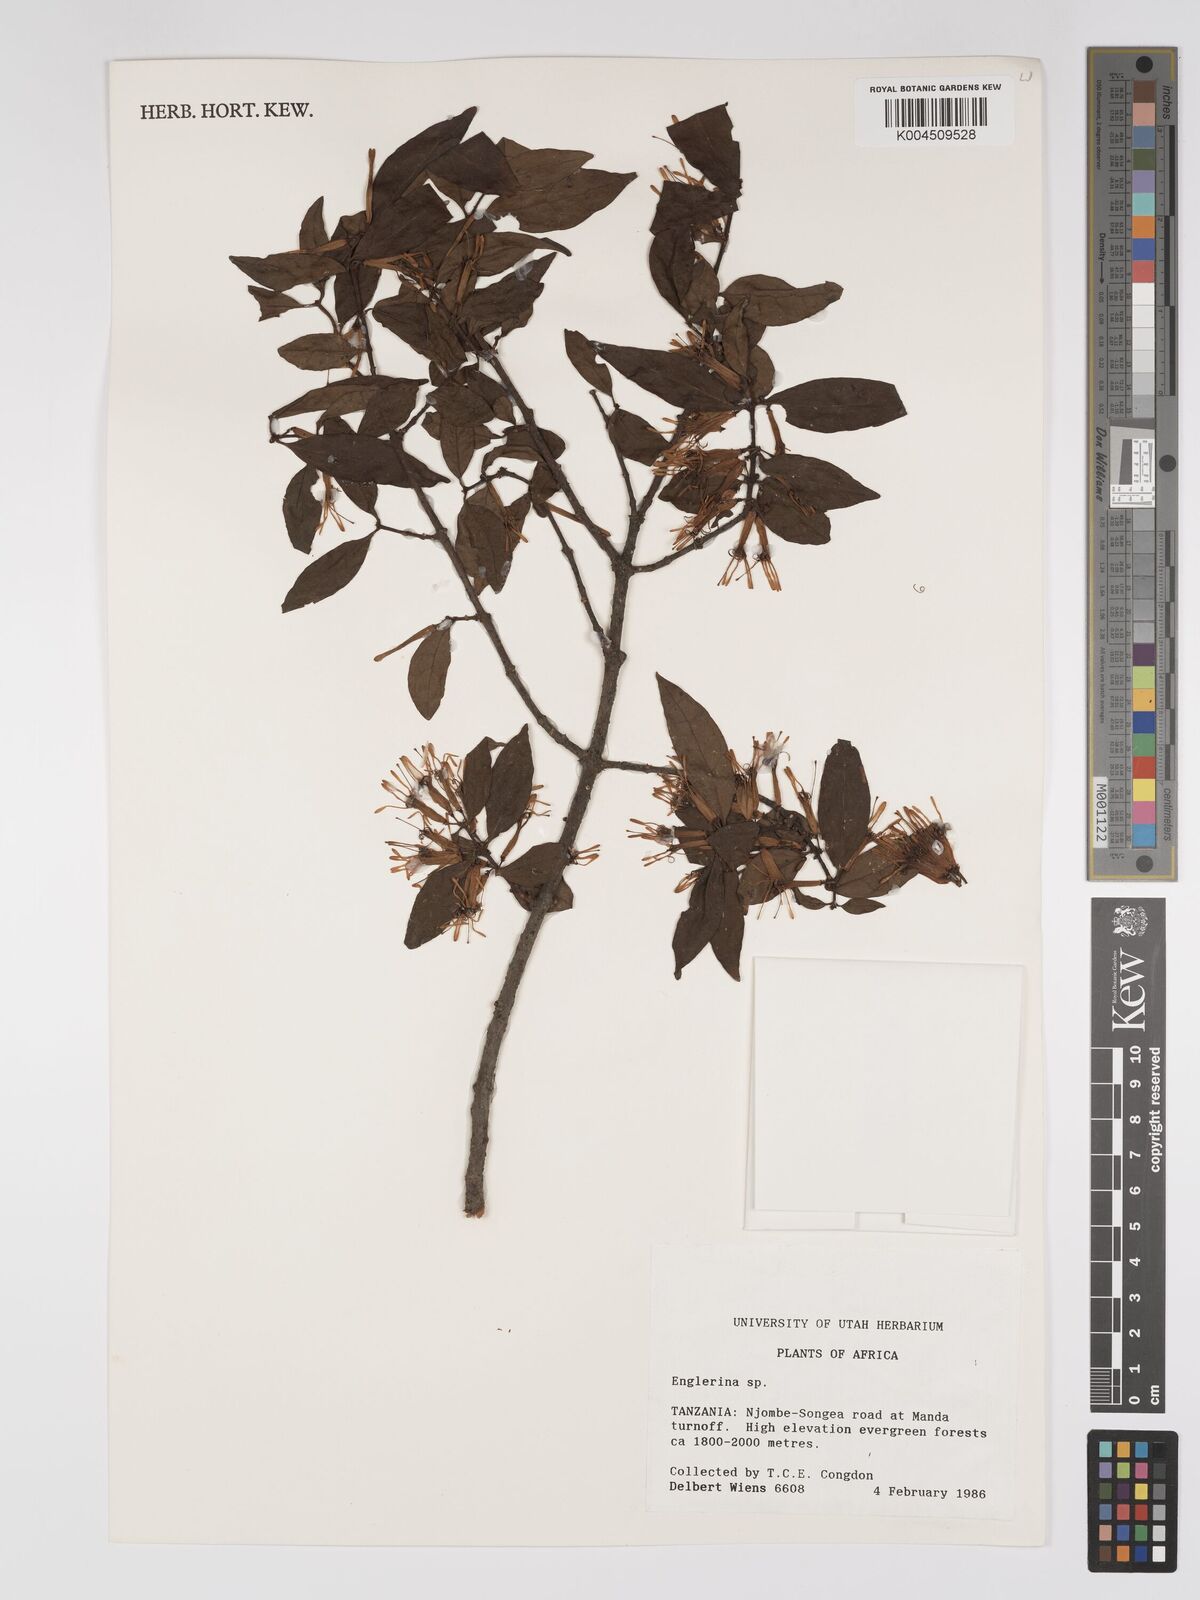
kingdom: Plantae
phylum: Tracheophyta
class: Magnoliopsida
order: Santalales
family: Loranthaceae
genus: Englerina
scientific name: Englerina inaequilatera
